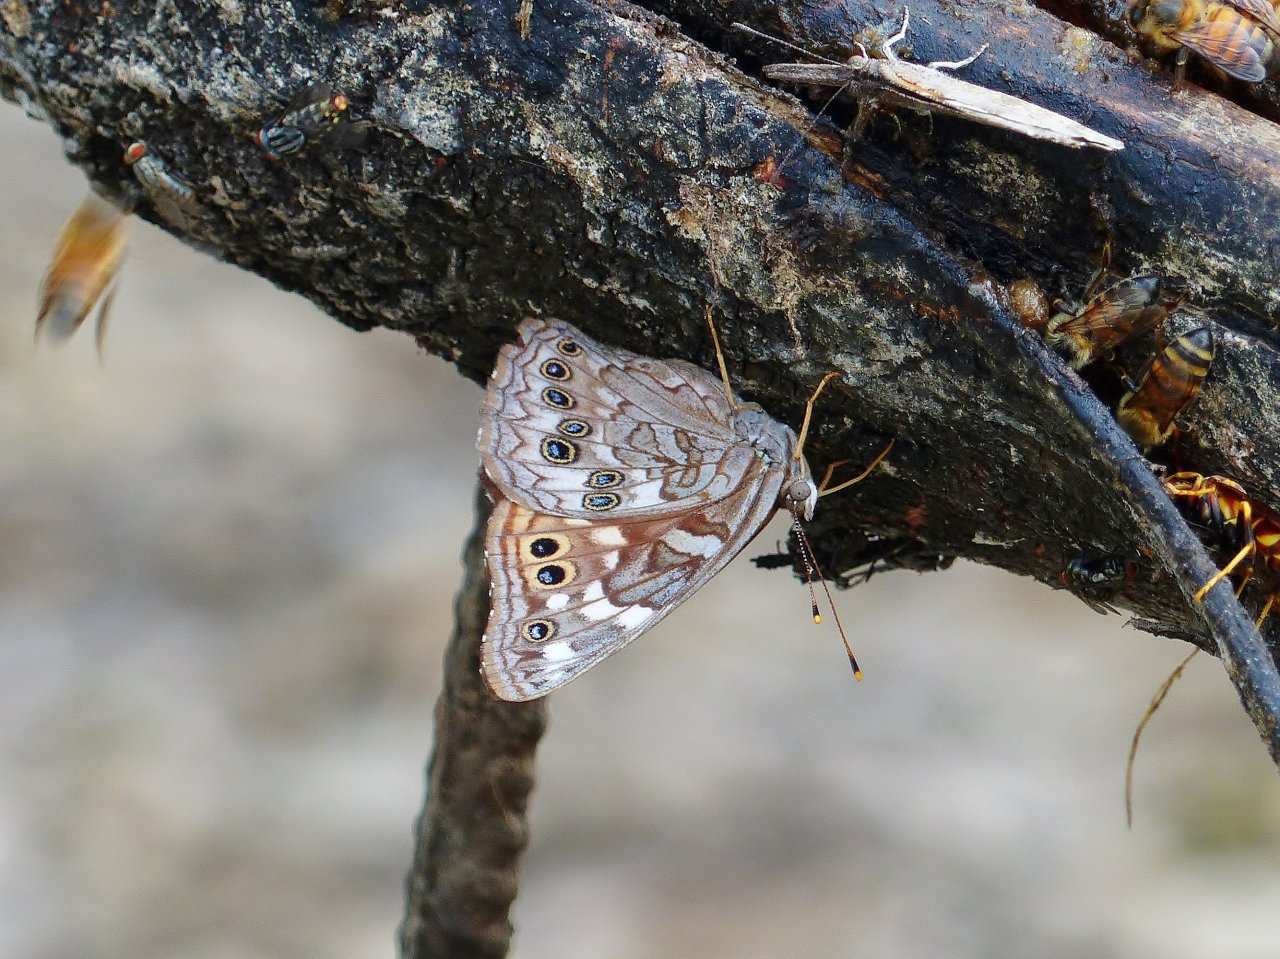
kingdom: Animalia
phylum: Arthropoda
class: Insecta
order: Lepidoptera
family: Nymphalidae
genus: Asterocampa
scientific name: Asterocampa leilia
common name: Empress Leilia
